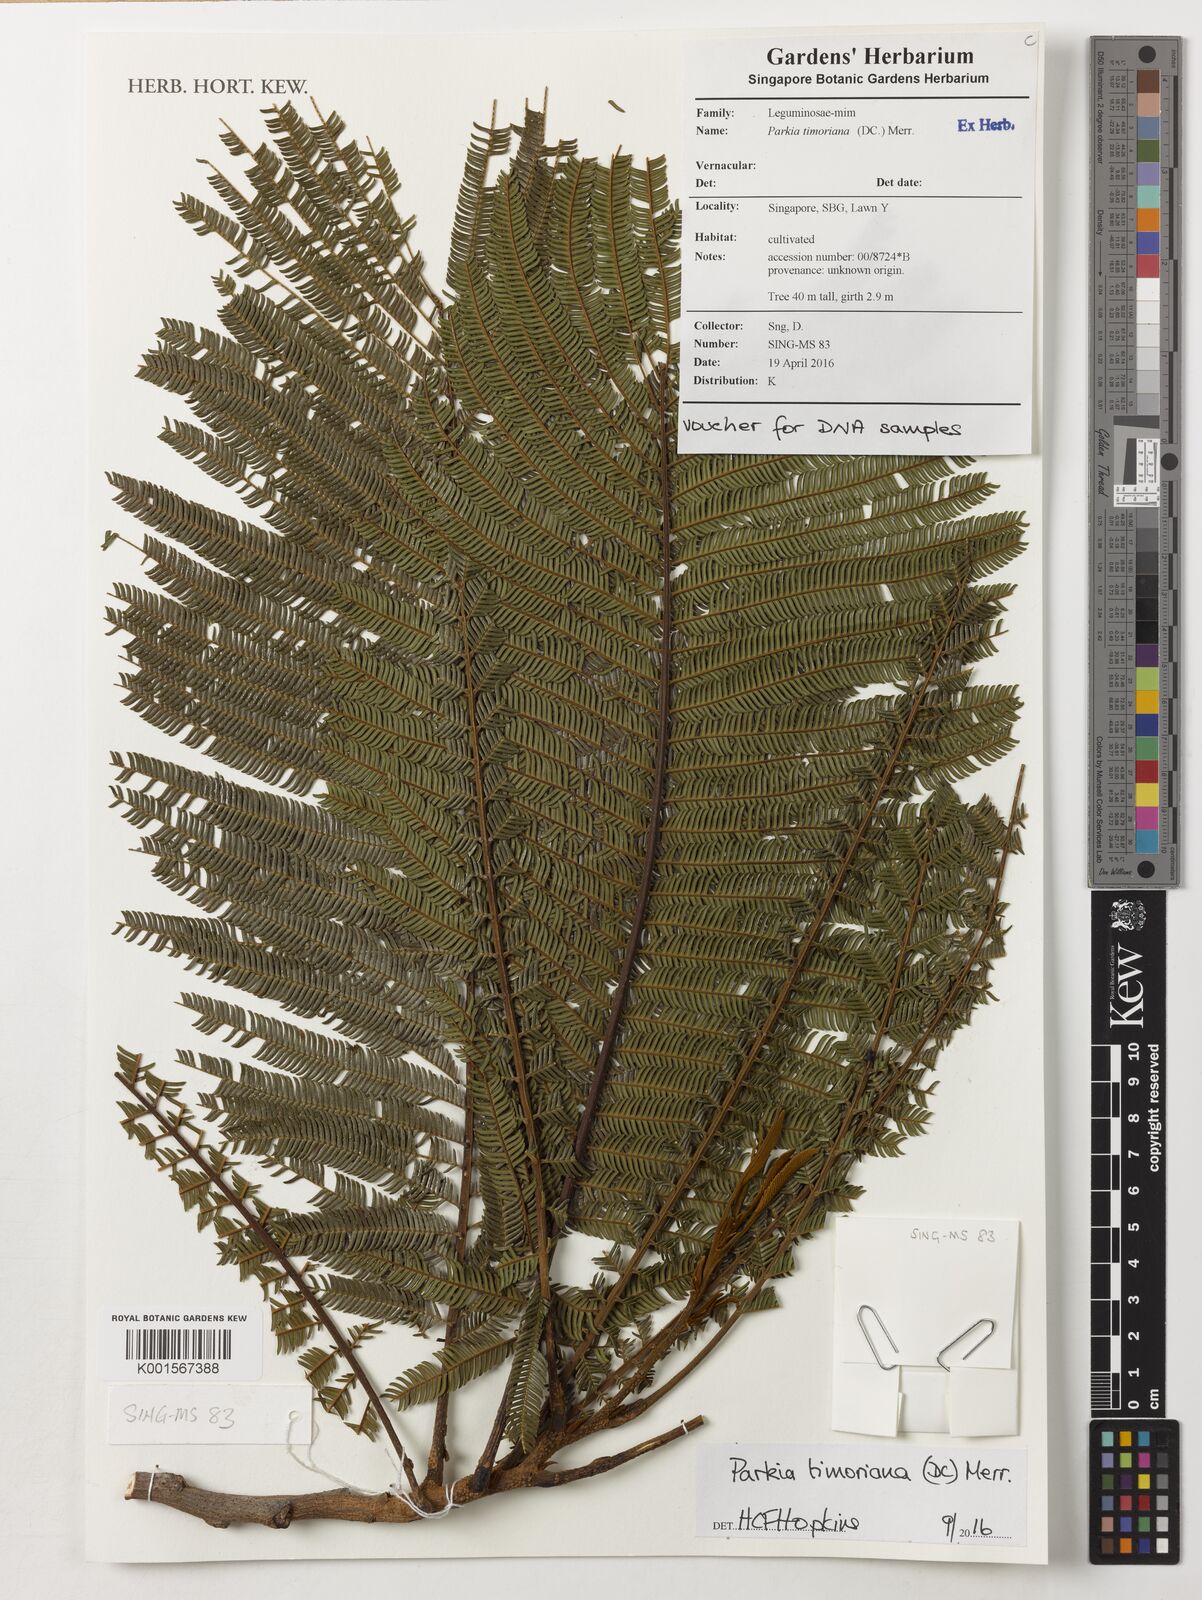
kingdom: Plantae
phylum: Tracheophyta
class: Magnoliopsida
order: Fabales
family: Fabaceae
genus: Parkia
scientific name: Parkia timoriana
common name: Legume
